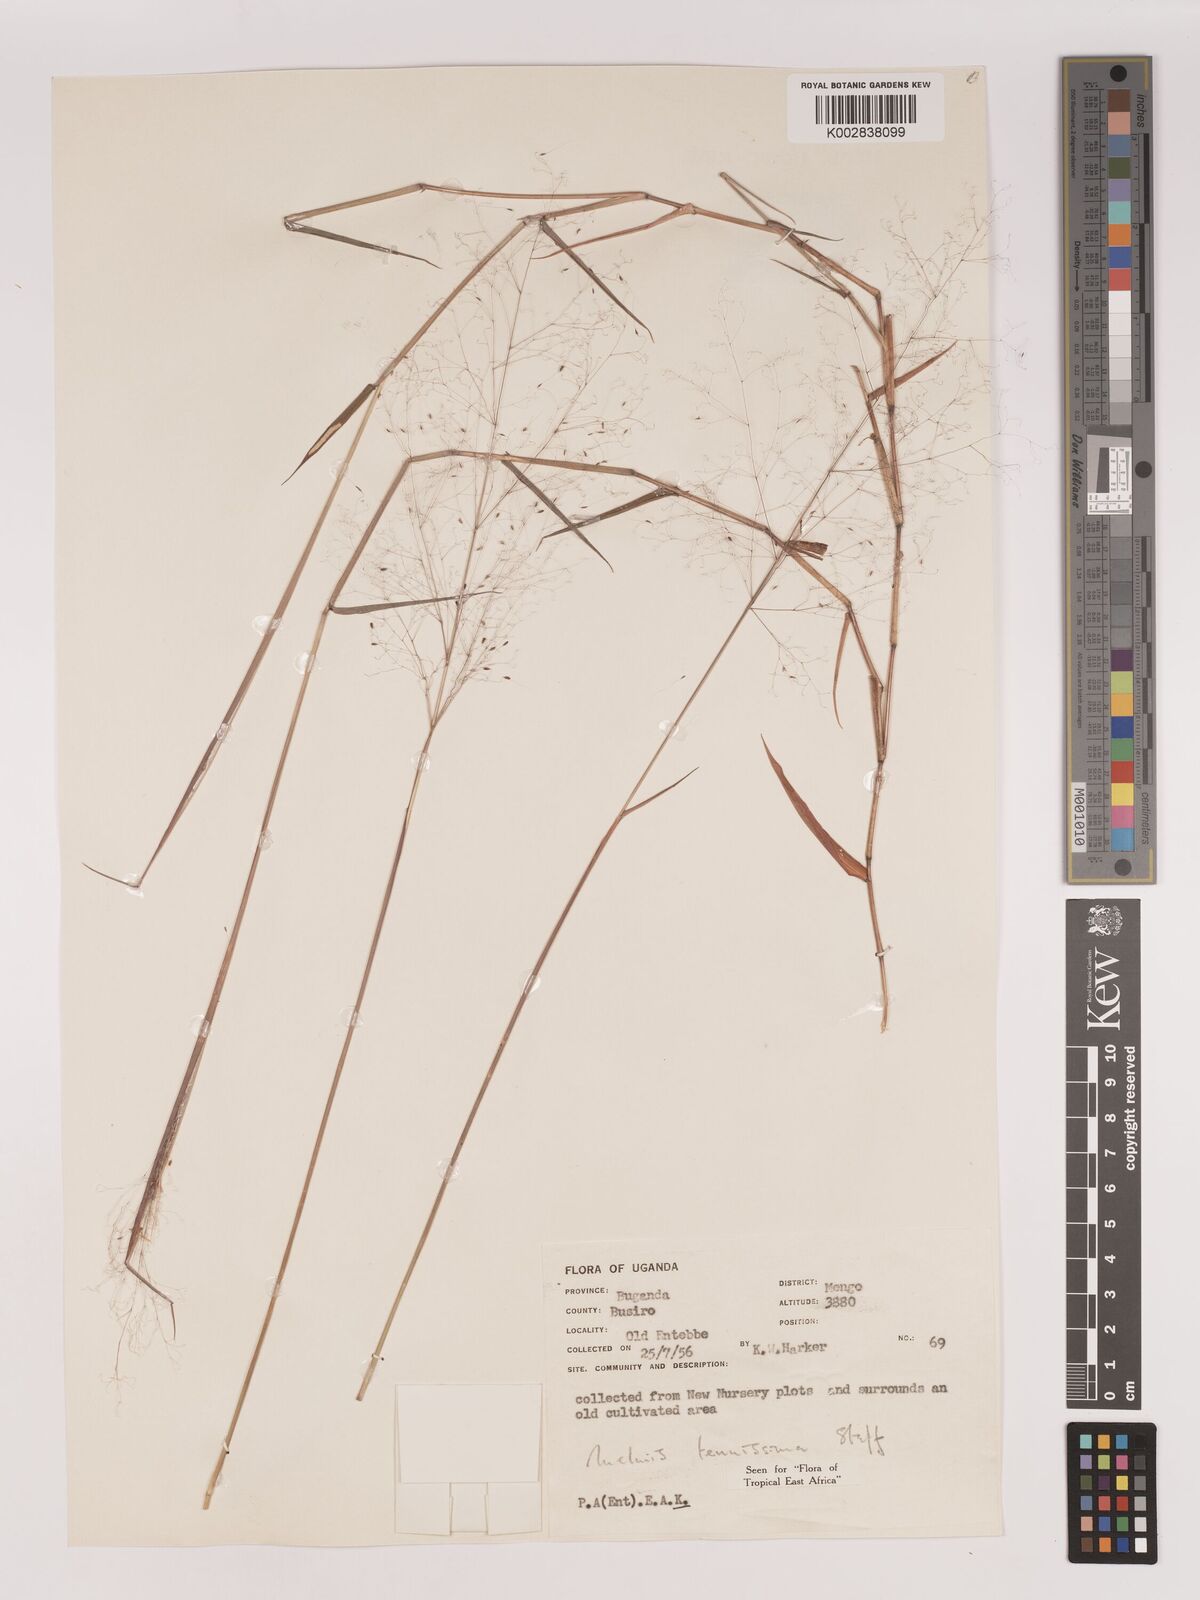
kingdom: Plantae
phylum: Tracheophyta
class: Liliopsida
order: Poales
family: Poaceae
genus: Melinis
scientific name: Melinis tenuissima
